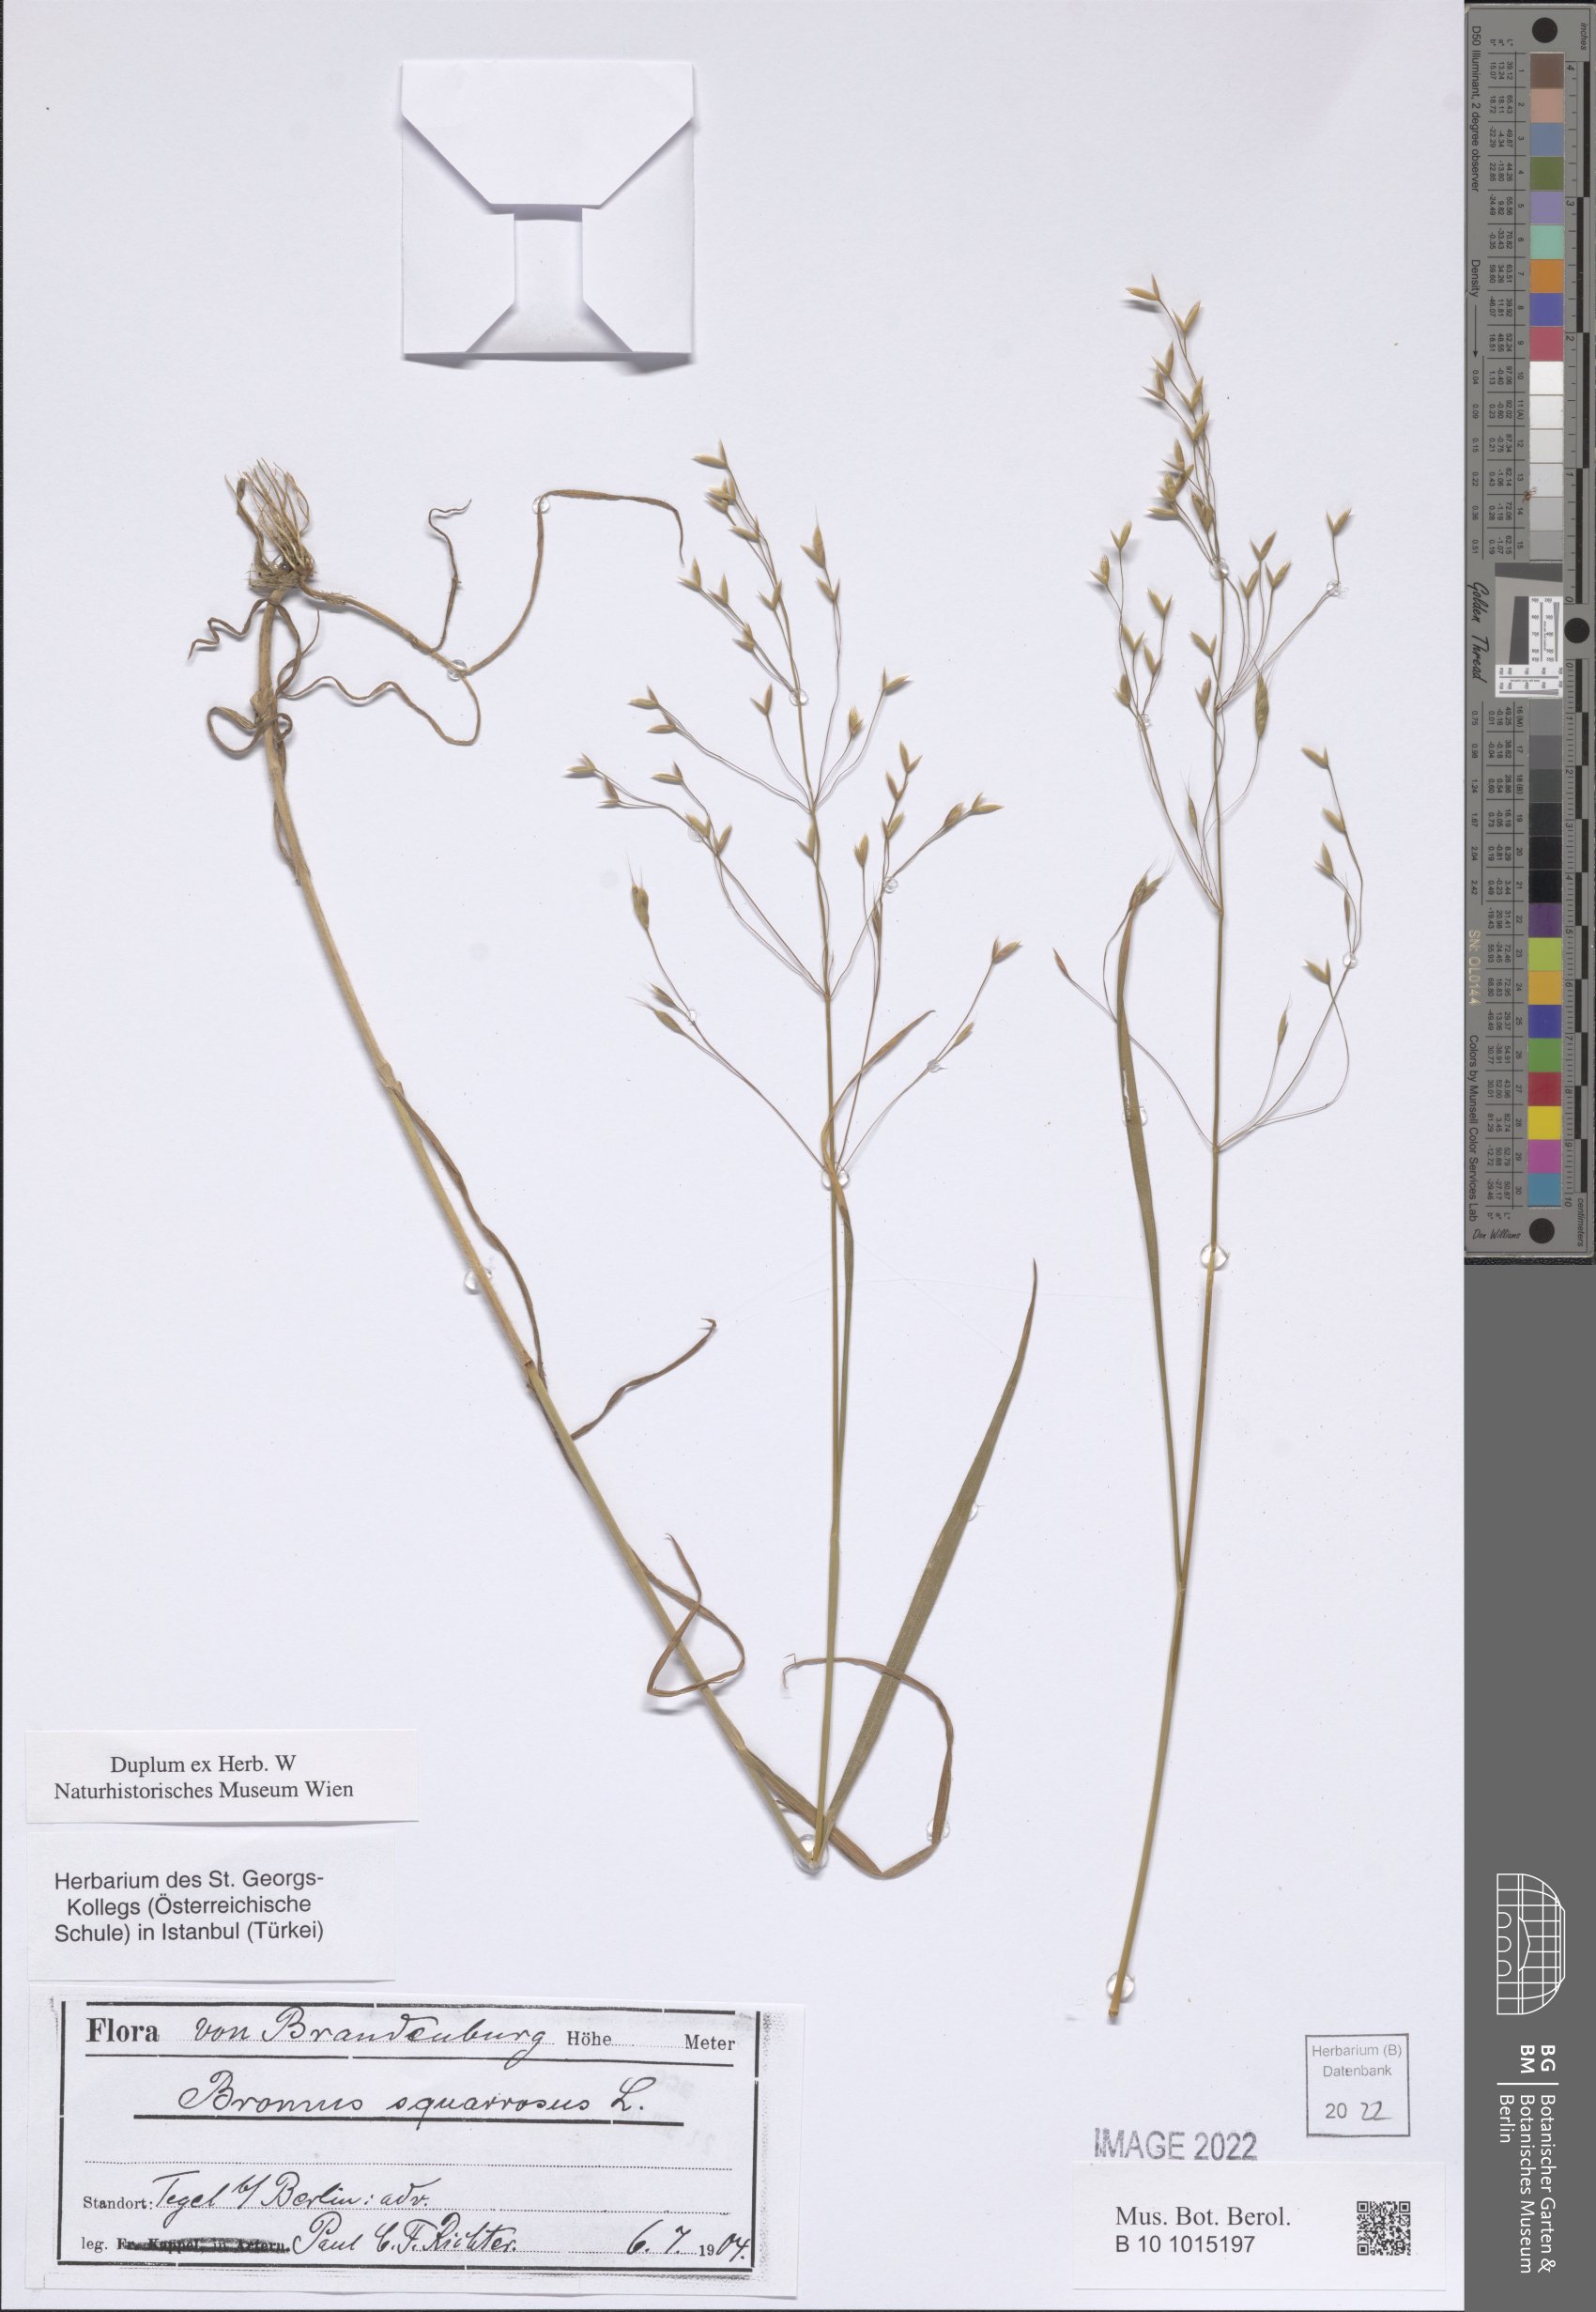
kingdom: Plantae
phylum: Tracheophyta
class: Liliopsida
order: Poales
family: Poaceae
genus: Bromus
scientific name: Bromus squarrosus
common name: Corn brome
